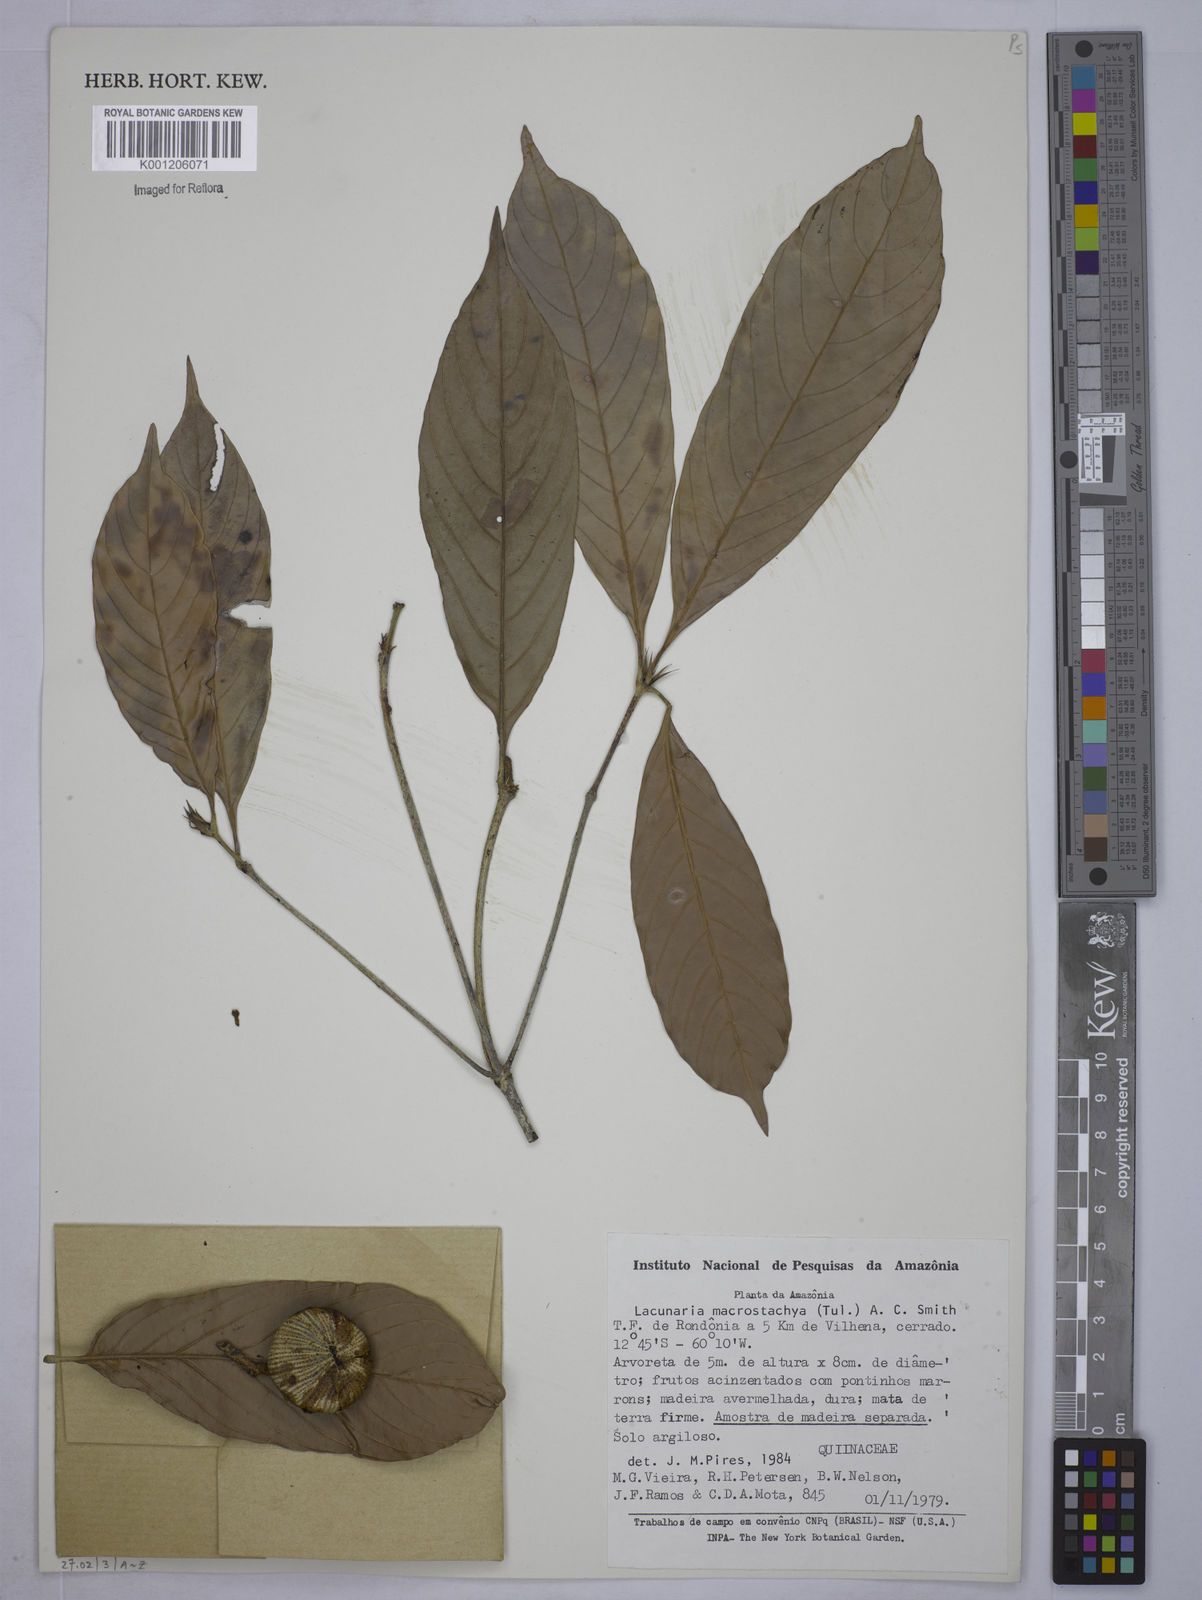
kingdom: Plantae
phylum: Tracheophyta
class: Magnoliopsida
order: Malpighiales
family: Quiinaceae
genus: Lacunaria
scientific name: Lacunaria macrostachya
